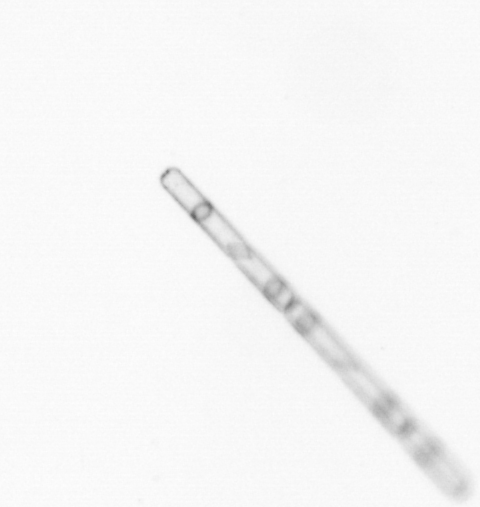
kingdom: Chromista
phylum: Ochrophyta
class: Bacillariophyceae
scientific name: Bacillariophyceae
